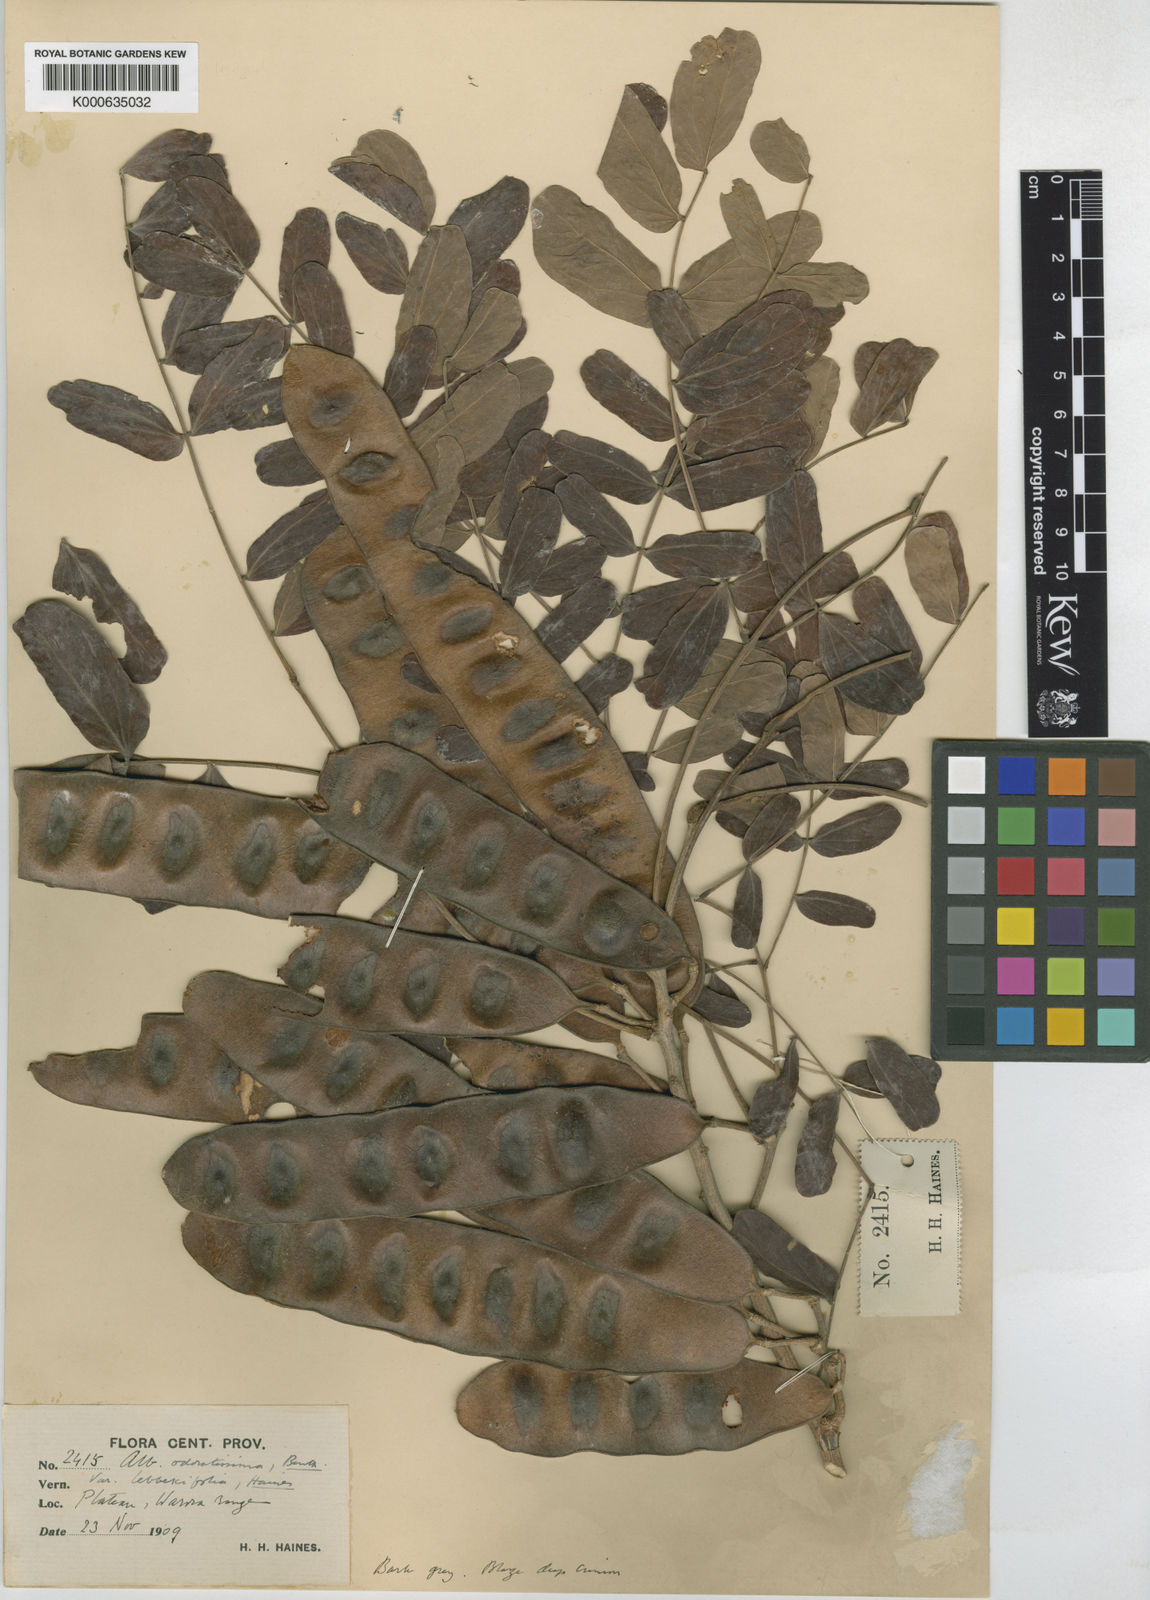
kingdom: Plantae
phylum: Tracheophyta
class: Magnoliopsida
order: Fabales
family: Fabaceae
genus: Albizia
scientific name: Albizia odoratissima
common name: Ceylon rosewood
